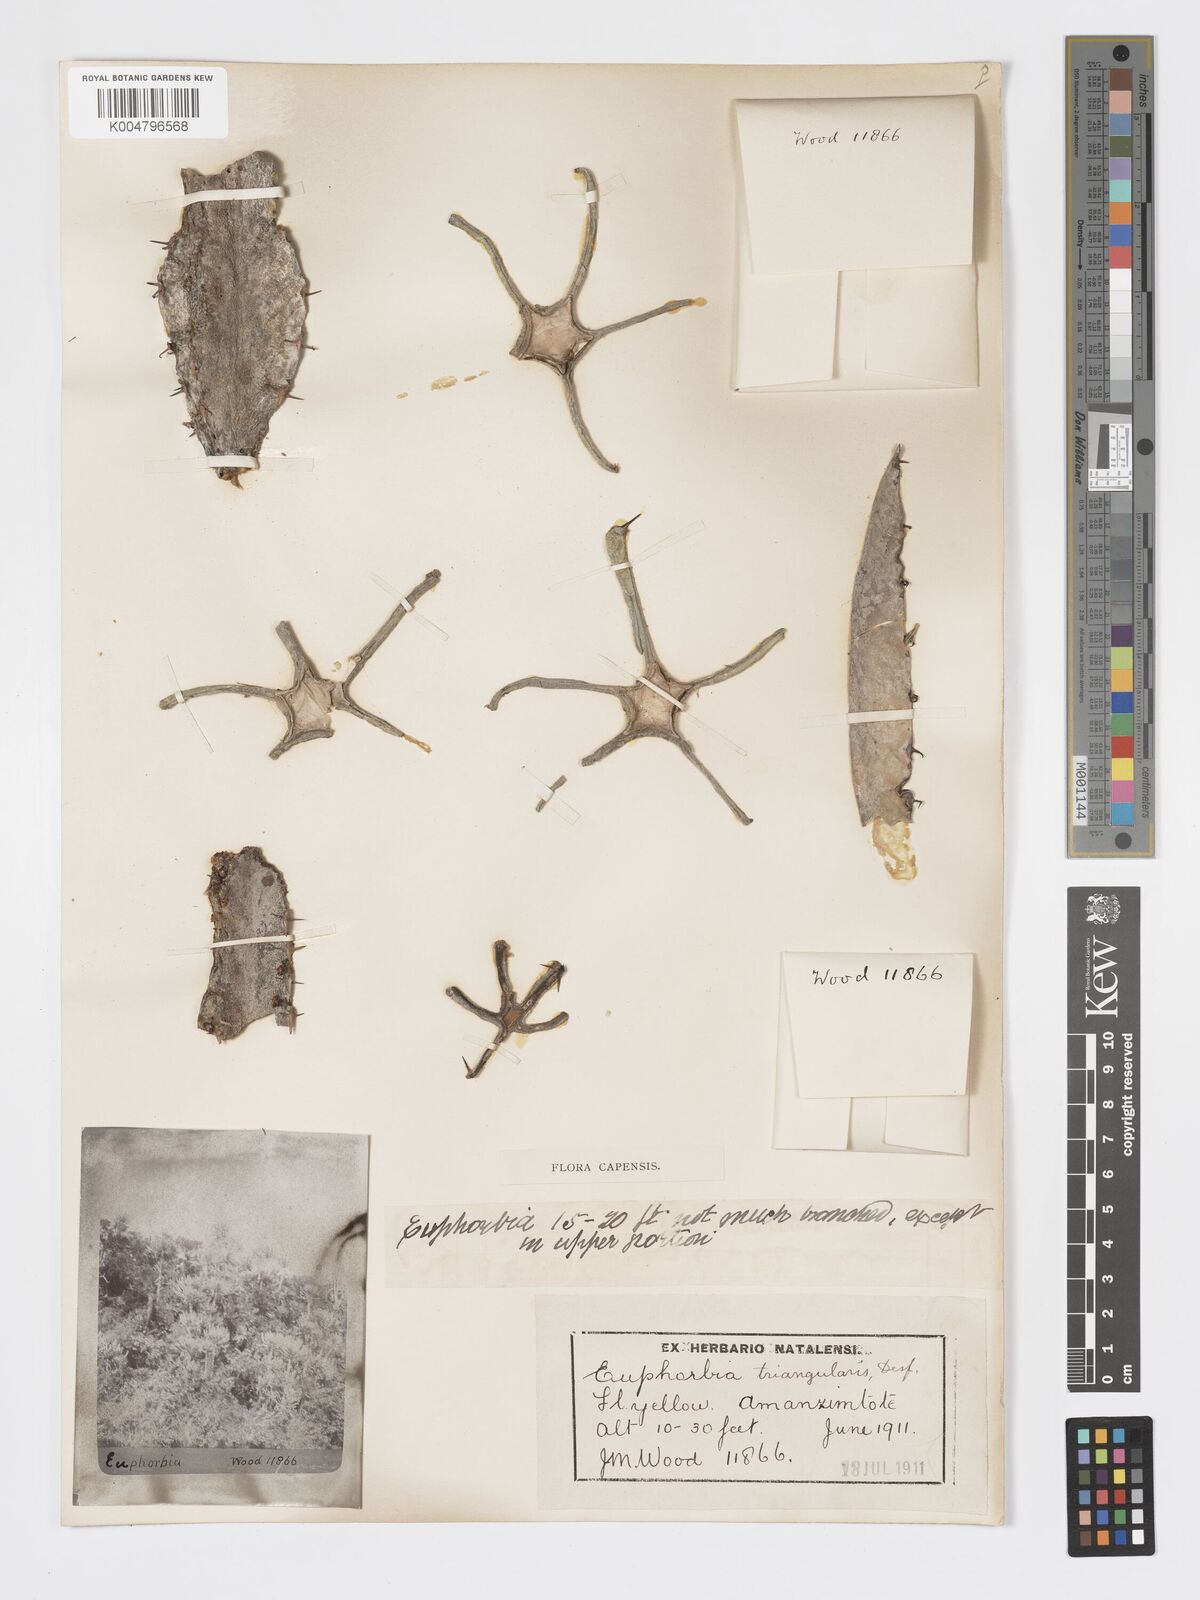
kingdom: Plantae
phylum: Tracheophyta
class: Magnoliopsida
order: Malpighiales
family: Euphorbiaceae
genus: Euphorbia
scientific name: Euphorbia triangularis
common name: Chandelier tree
